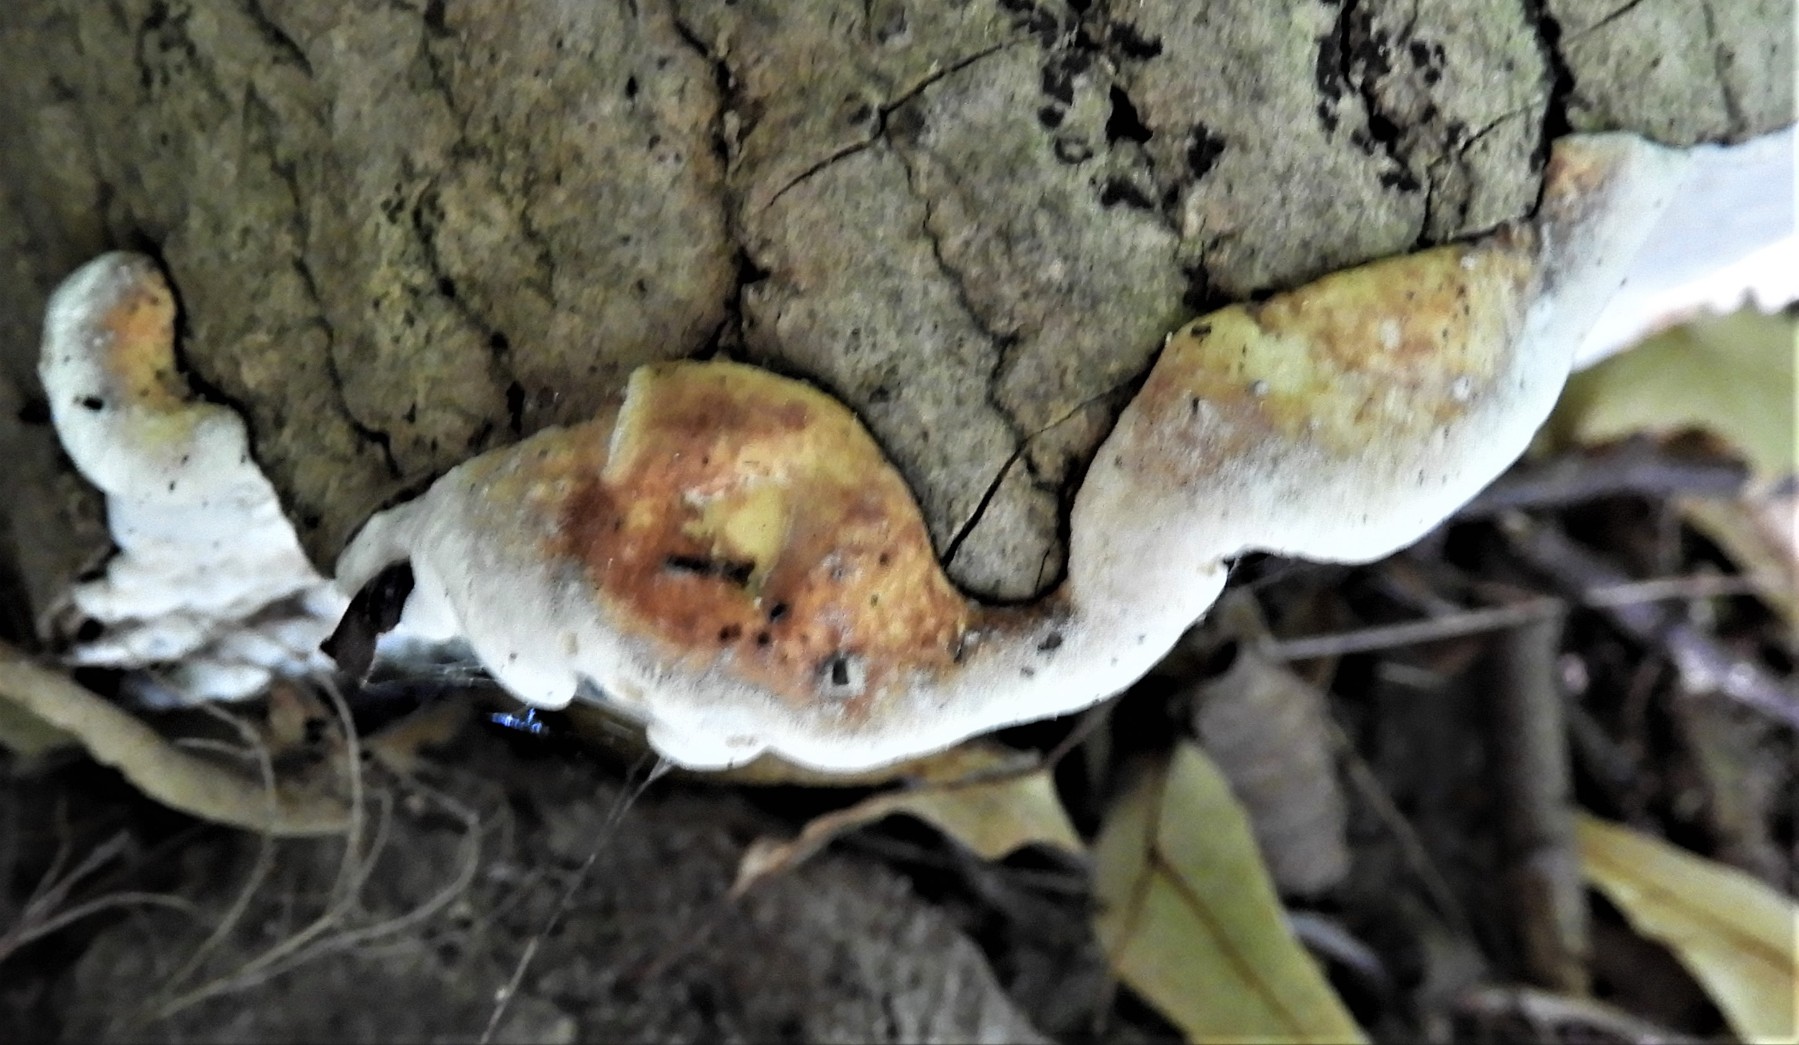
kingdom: Fungi
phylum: Basidiomycota
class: Agaricomycetes
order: Polyporales
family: Incrustoporiaceae
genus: Skeletocutis
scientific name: Skeletocutis nemoralis
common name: stor krystalporesvamp
